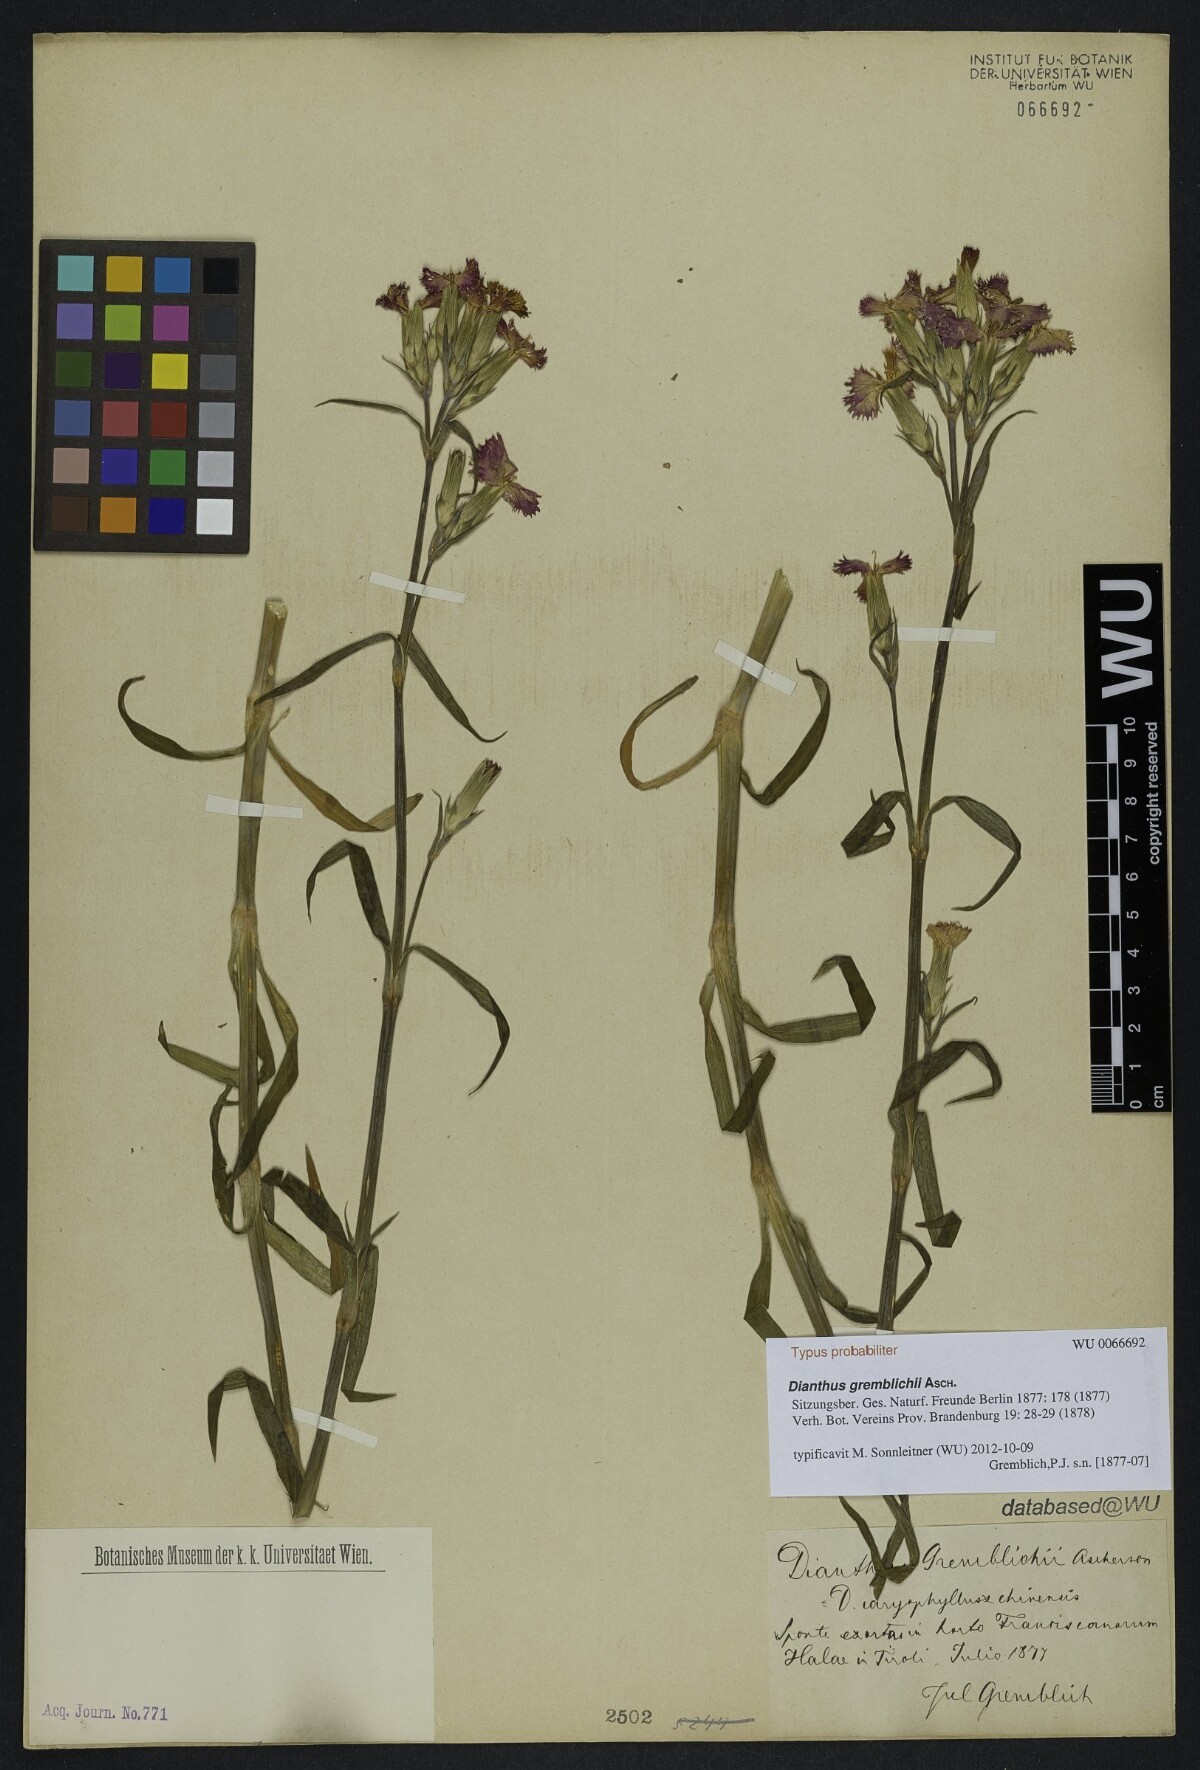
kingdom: Plantae
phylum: Tracheophyta
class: Magnoliopsida
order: Caryophyllales
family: Caryophyllaceae
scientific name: Caryophyllaceae
